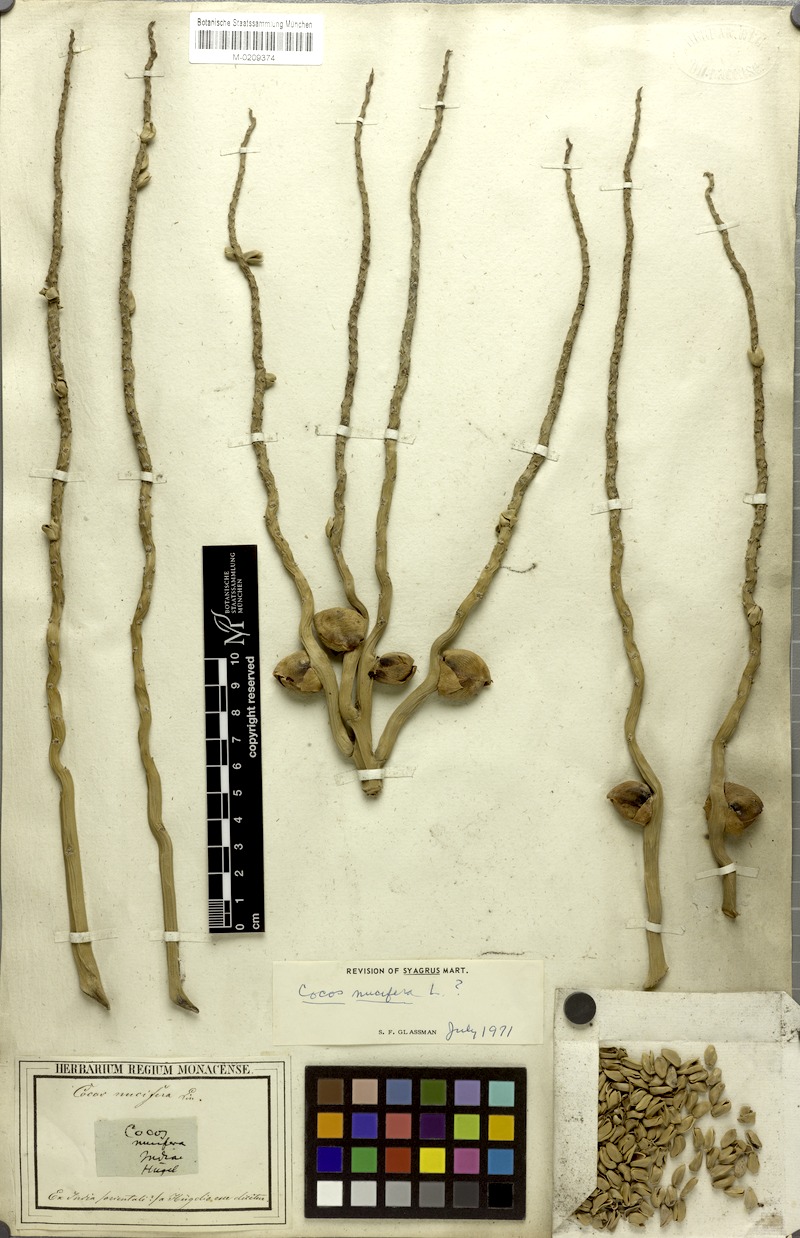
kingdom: Plantae
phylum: Tracheophyta
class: Liliopsida
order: Arecales
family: Arecaceae
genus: Cocos
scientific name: Cocos nucifera
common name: Coconut palm
